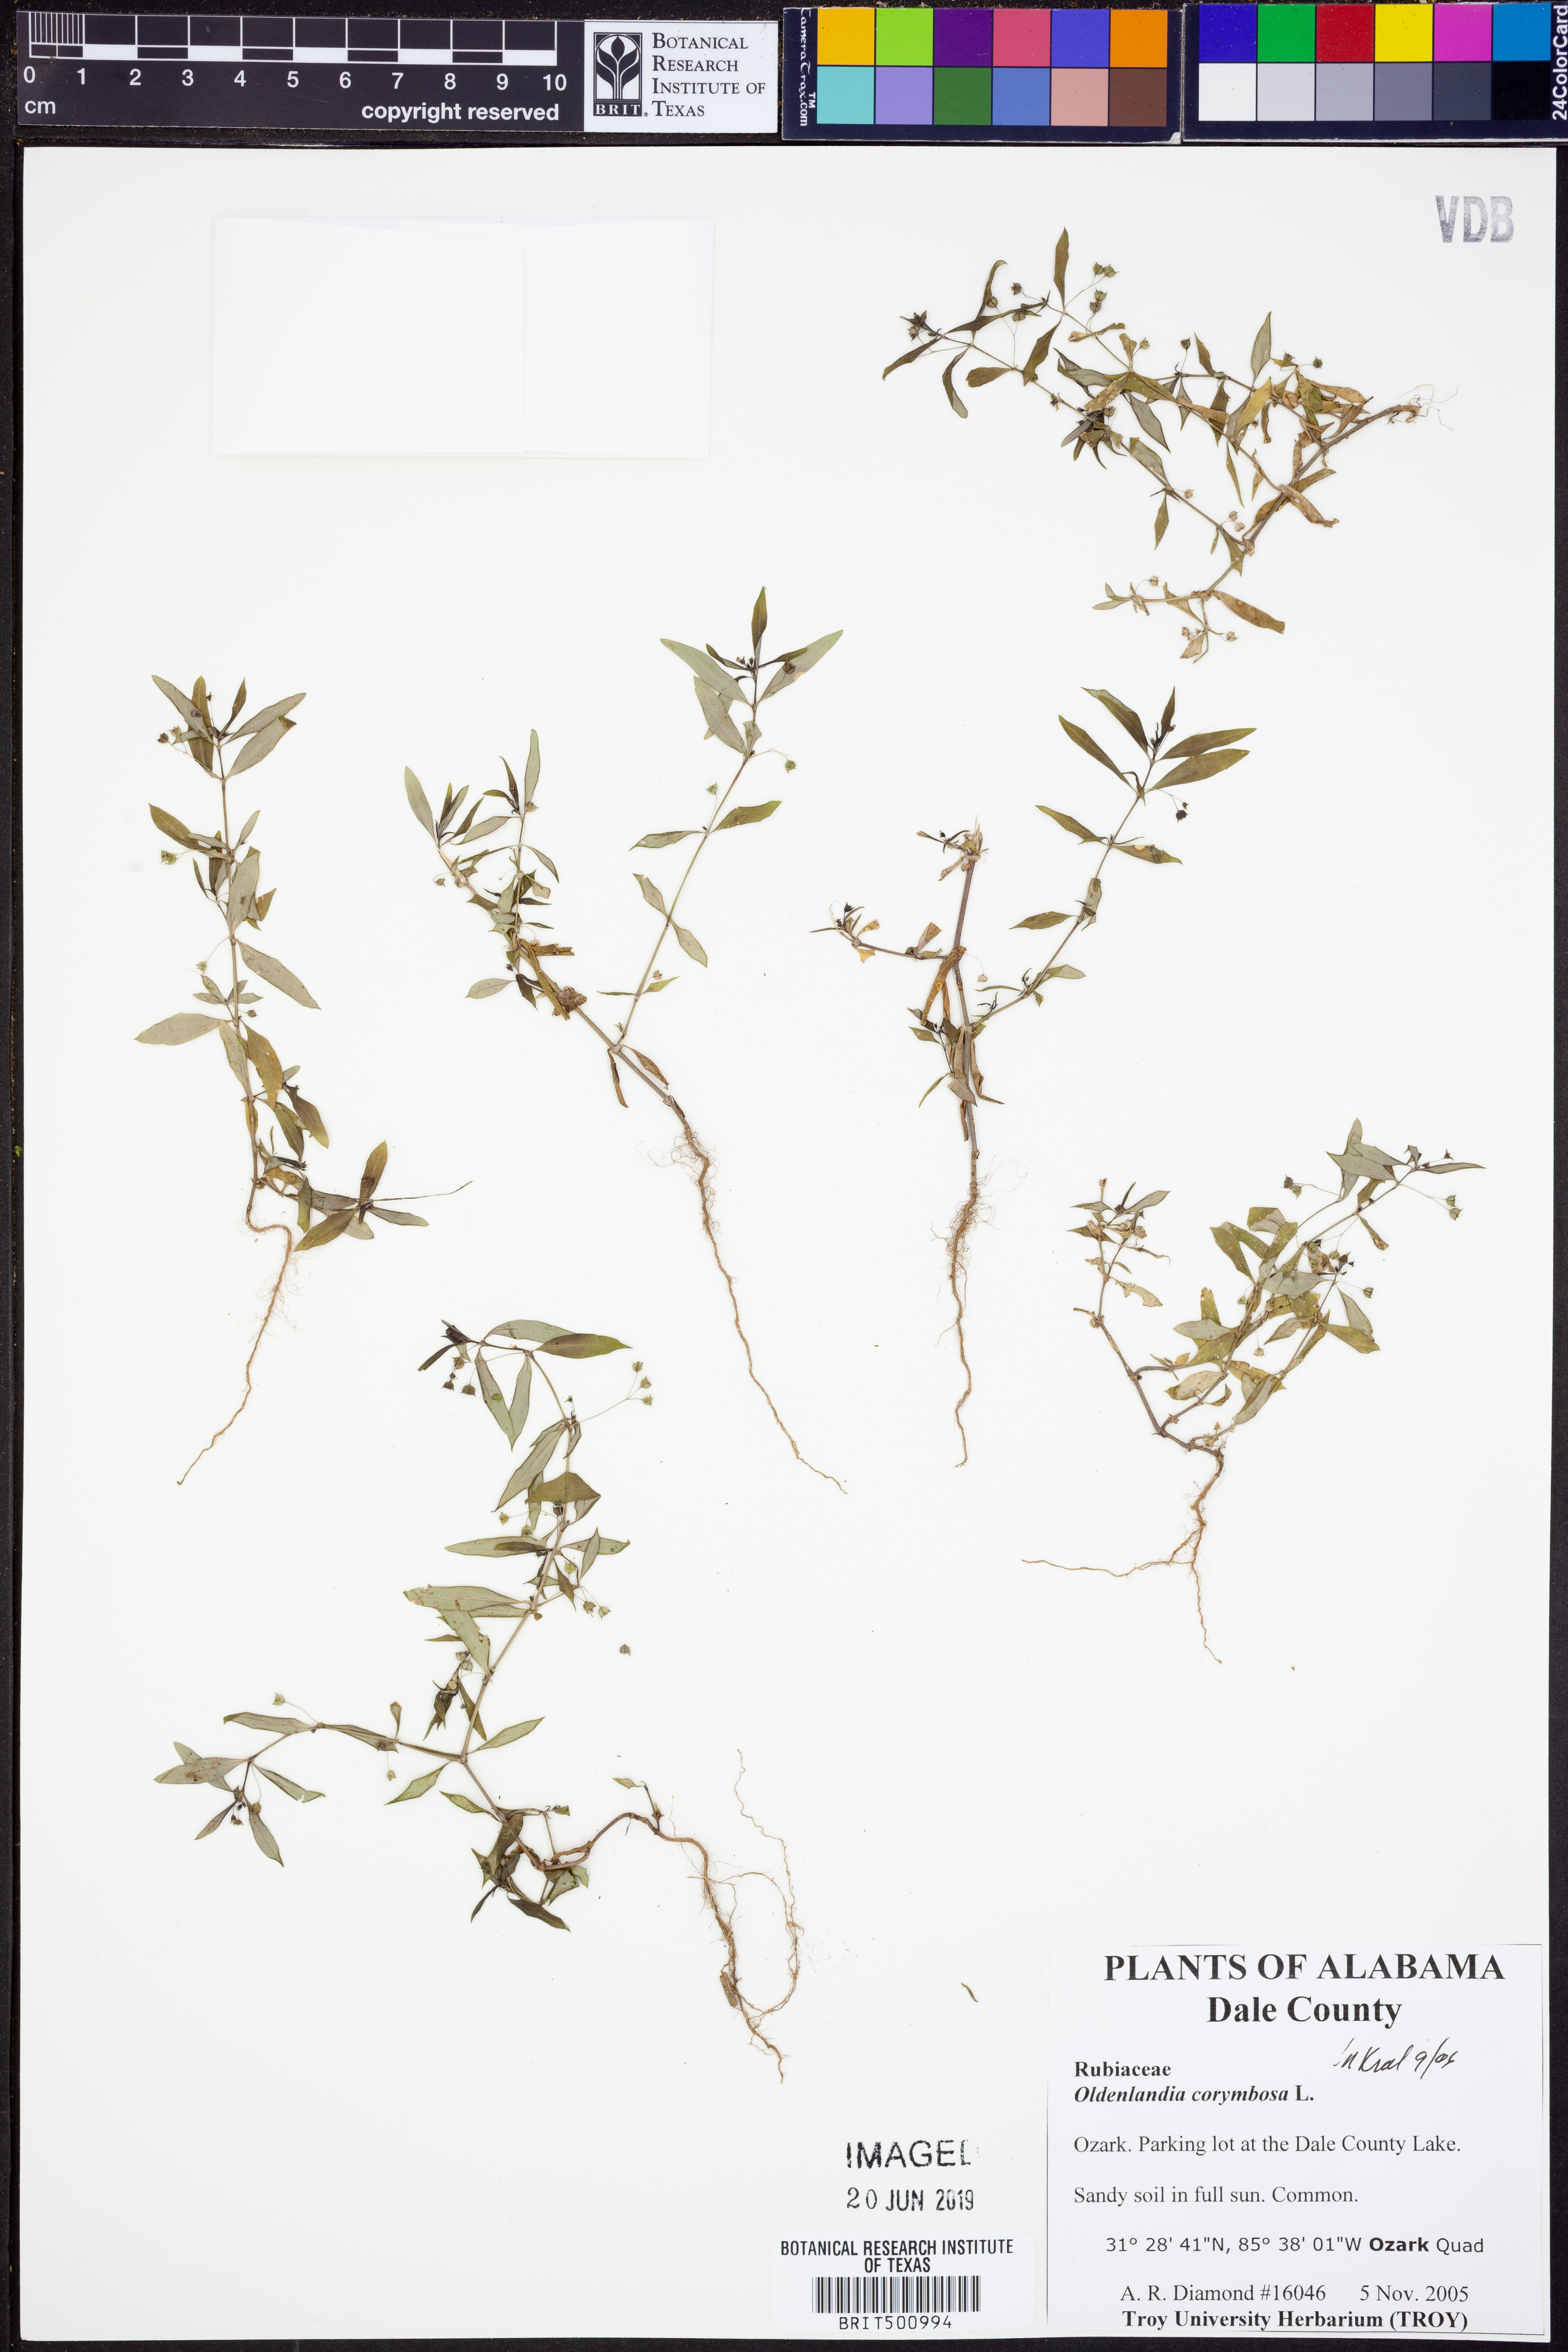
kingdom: Plantae
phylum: Tracheophyta
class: Magnoliopsida
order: Gentianales
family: Rubiaceae
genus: Oldenlandia
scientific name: Oldenlandia corymbosa
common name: Flat-top mille graines
